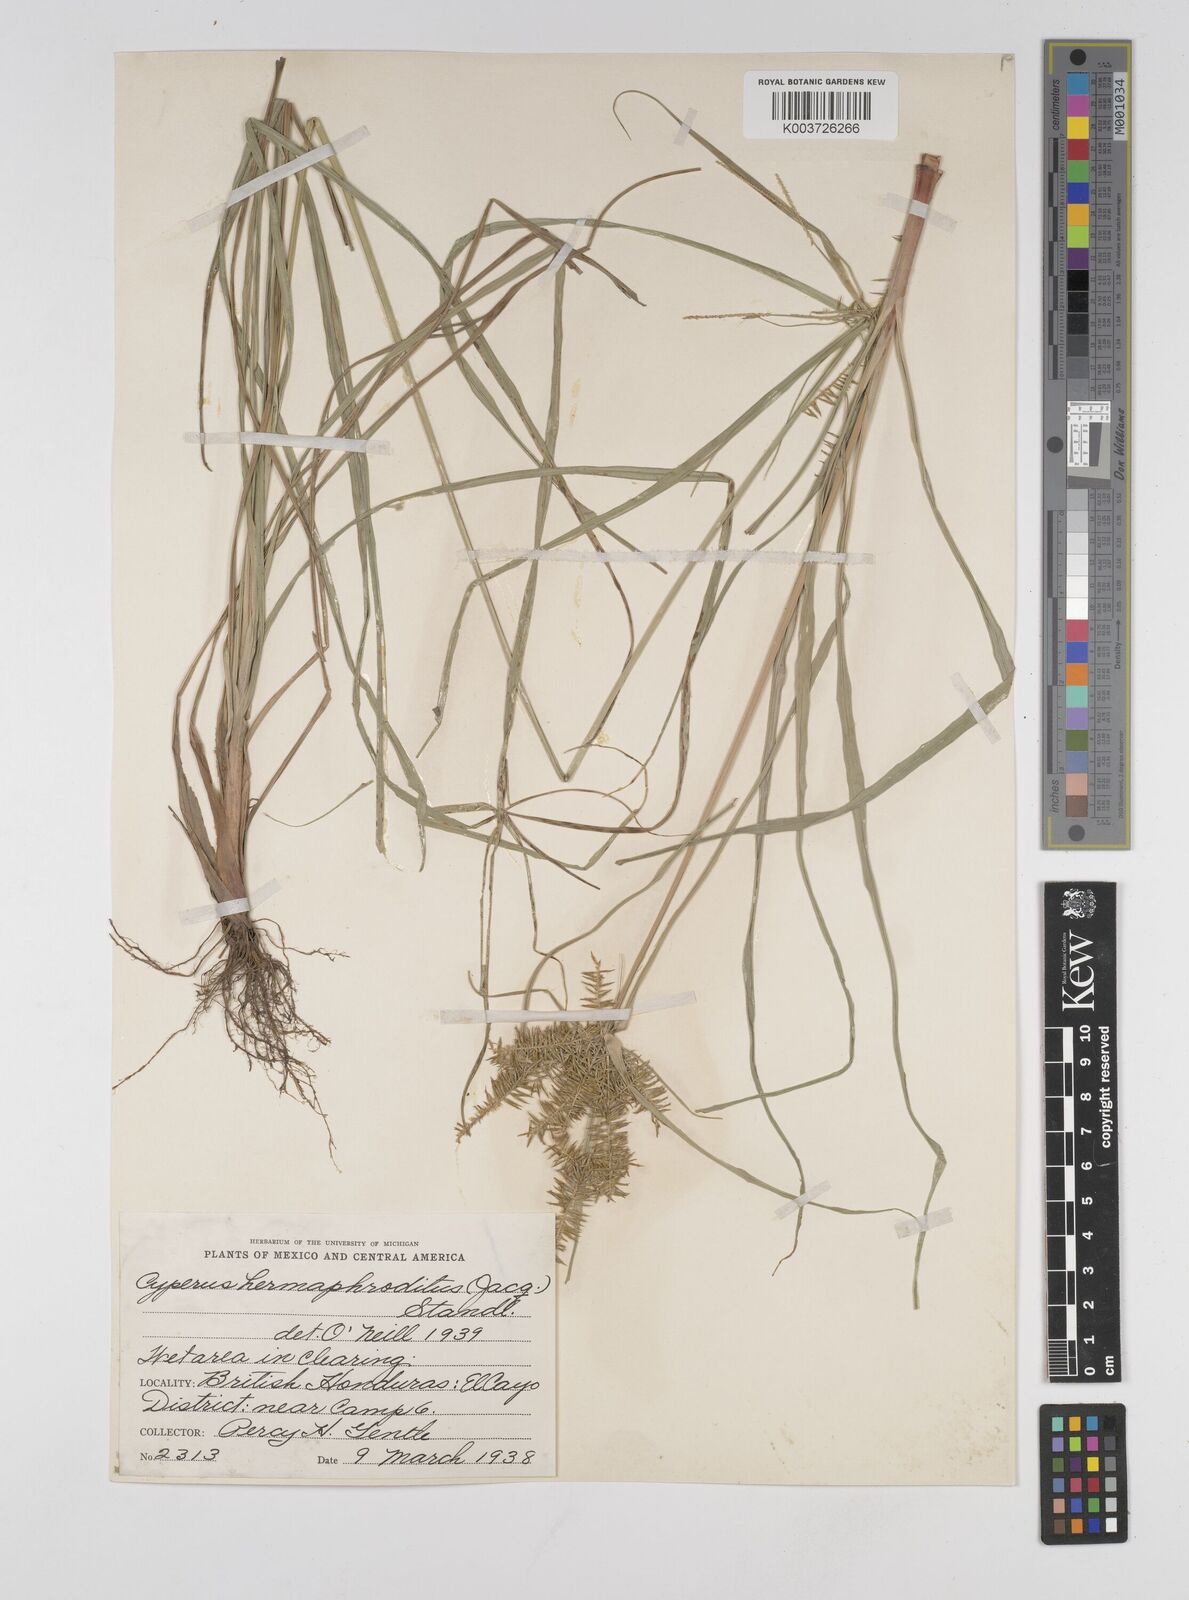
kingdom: Plantae
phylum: Tracheophyta
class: Liliopsida
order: Poales
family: Cyperaceae
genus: Cyperus
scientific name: Cyperus hermaphroditus
